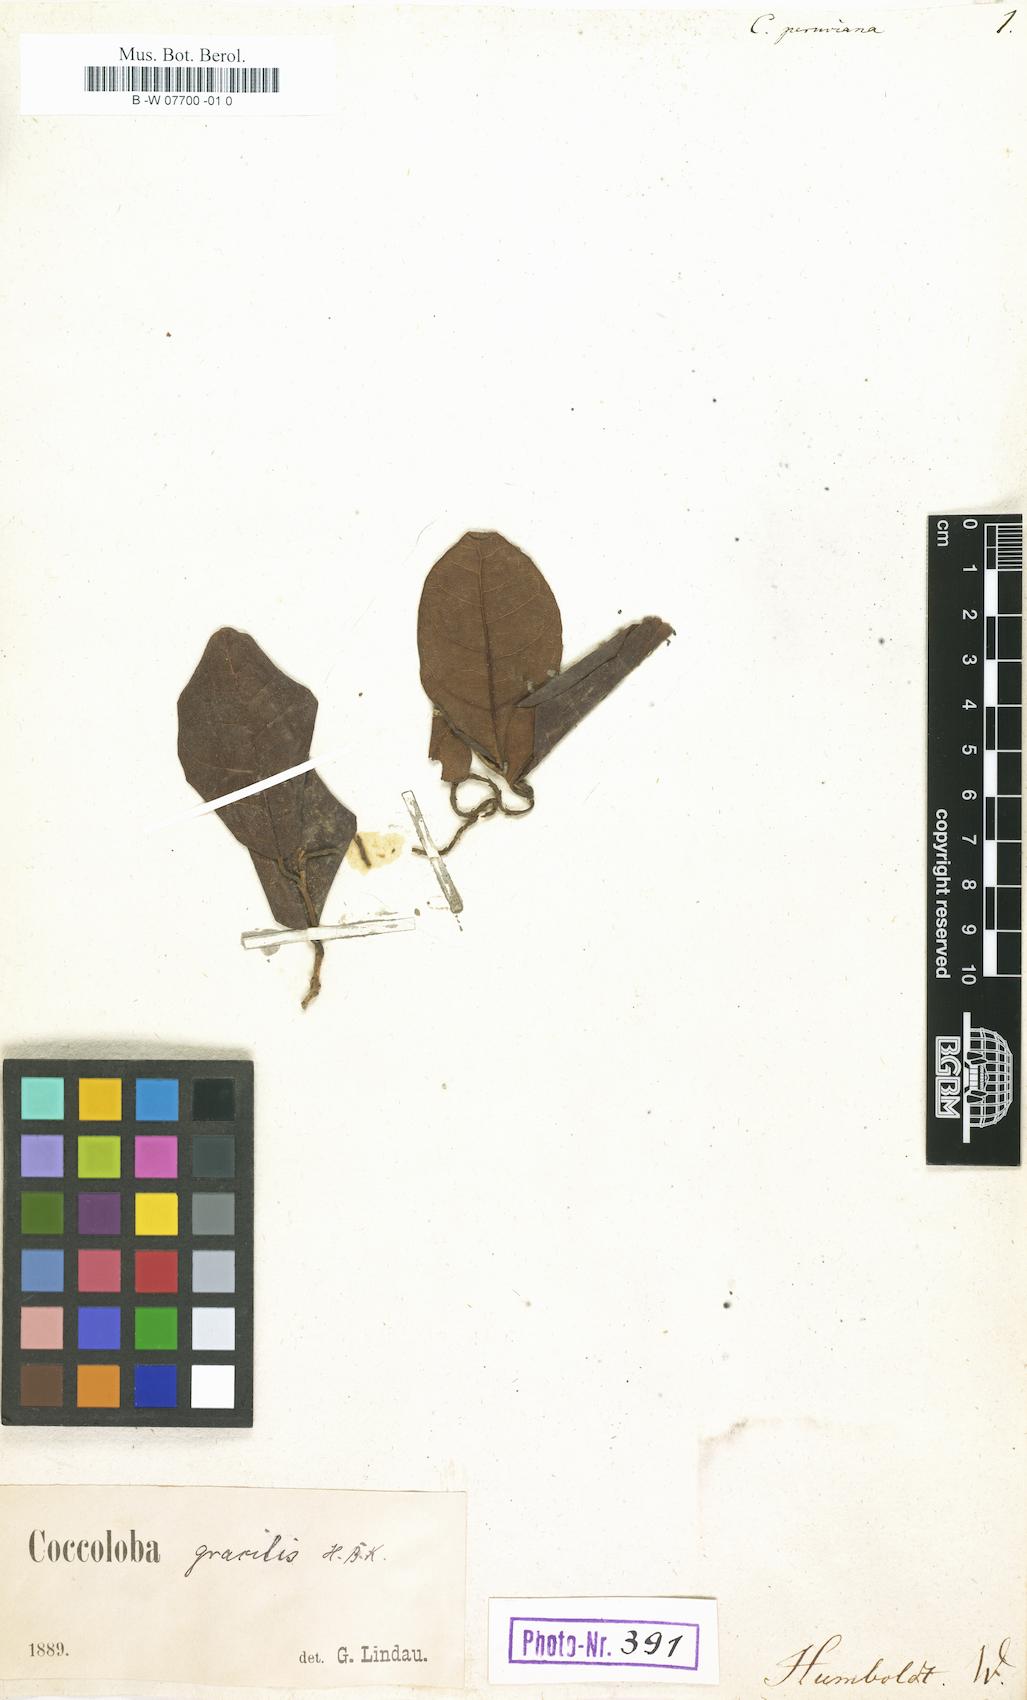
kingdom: Plantae
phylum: Tracheophyta
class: Magnoliopsida
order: Caryophyllales
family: Polygonaceae
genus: Coccoloba
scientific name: Coccoloba peruviana
